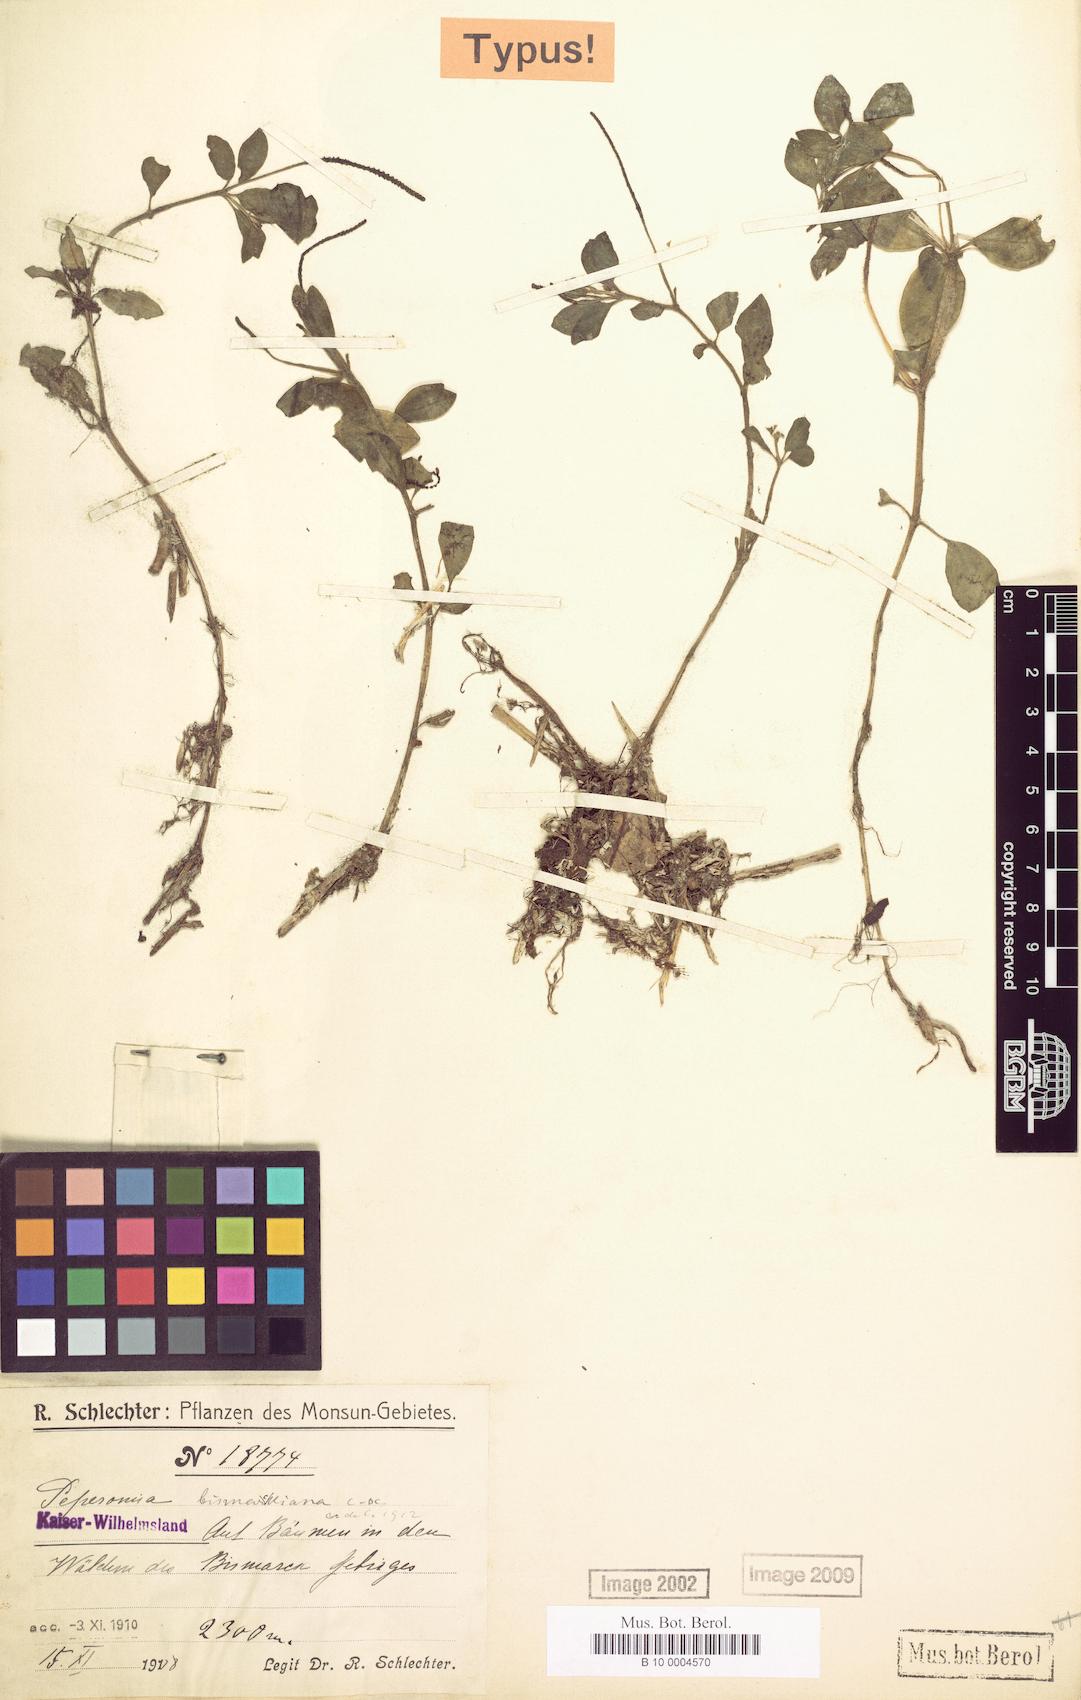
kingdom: Plantae
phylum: Tracheophyta
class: Magnoliopsida
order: Piperales
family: Piperaceae
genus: Peperomia
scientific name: Peperomia bismarckiana
